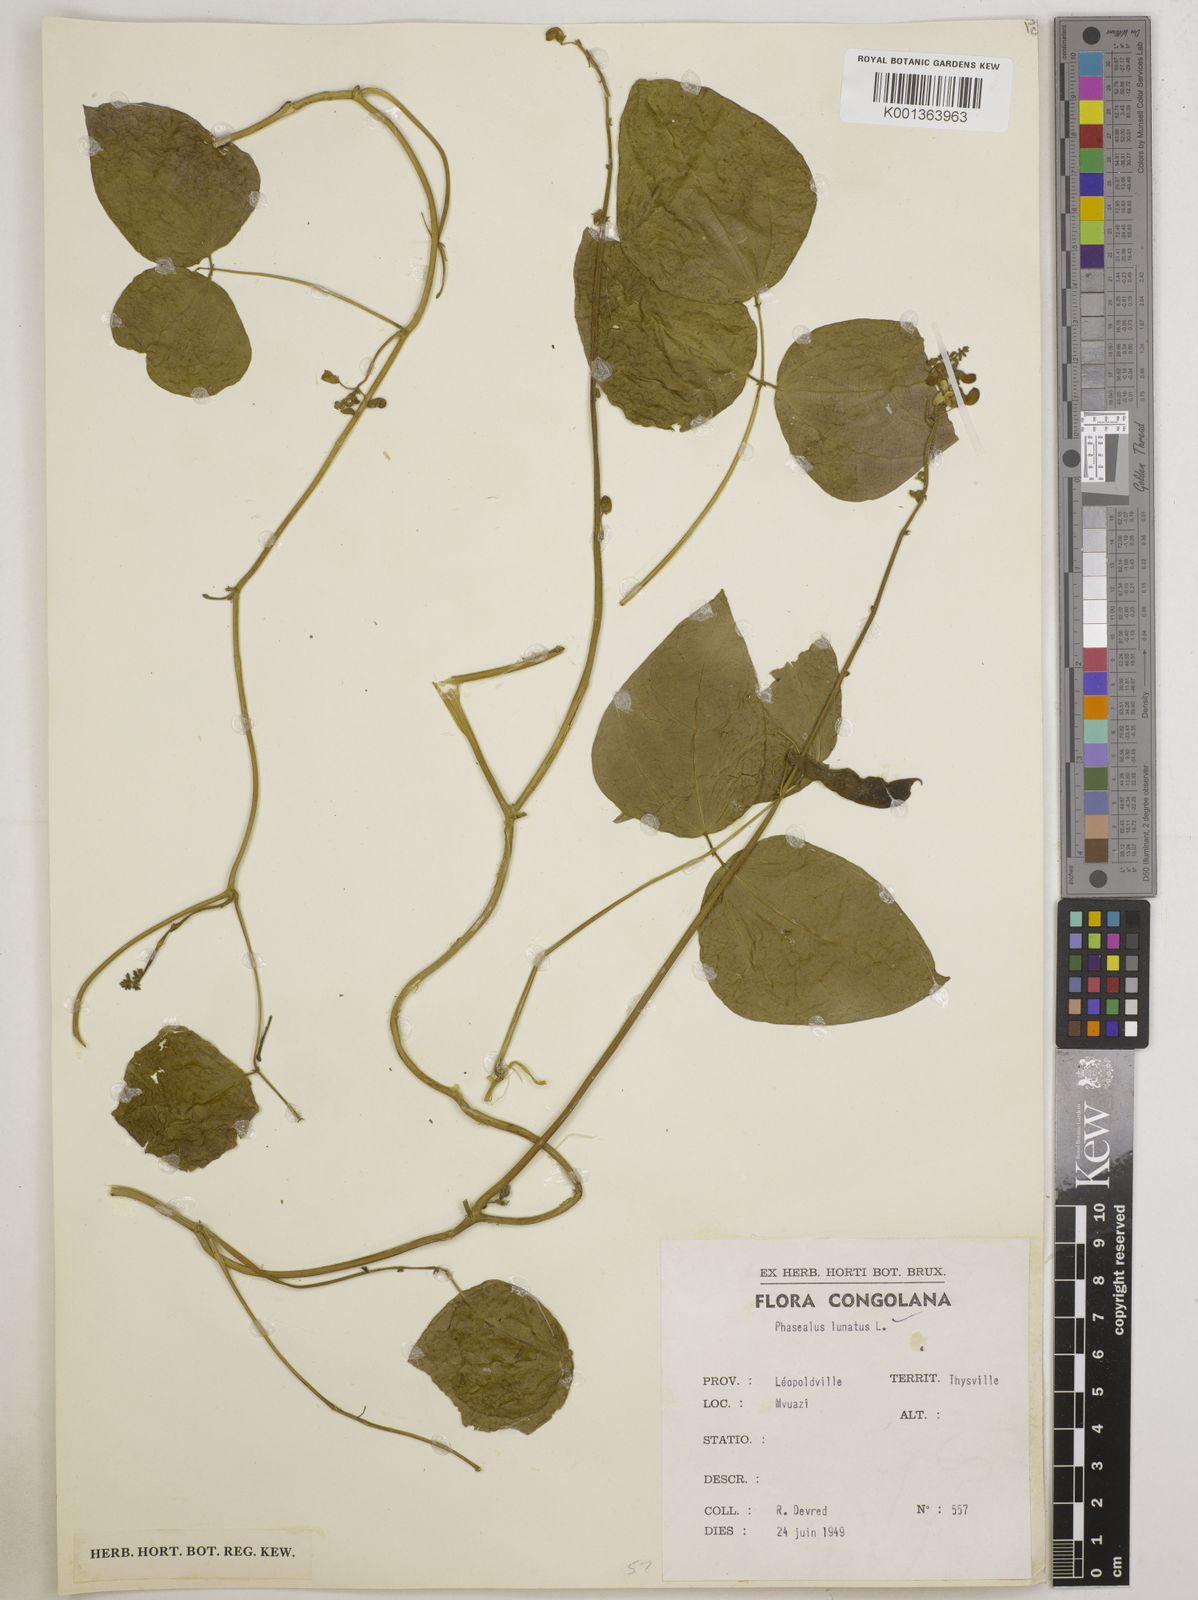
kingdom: Plantae
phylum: Tracheophyta
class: Magnoliopsida
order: Fabales
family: Fabaceae
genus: Phaseolus
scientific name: Phaseolus lunatus
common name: Sieva bean
